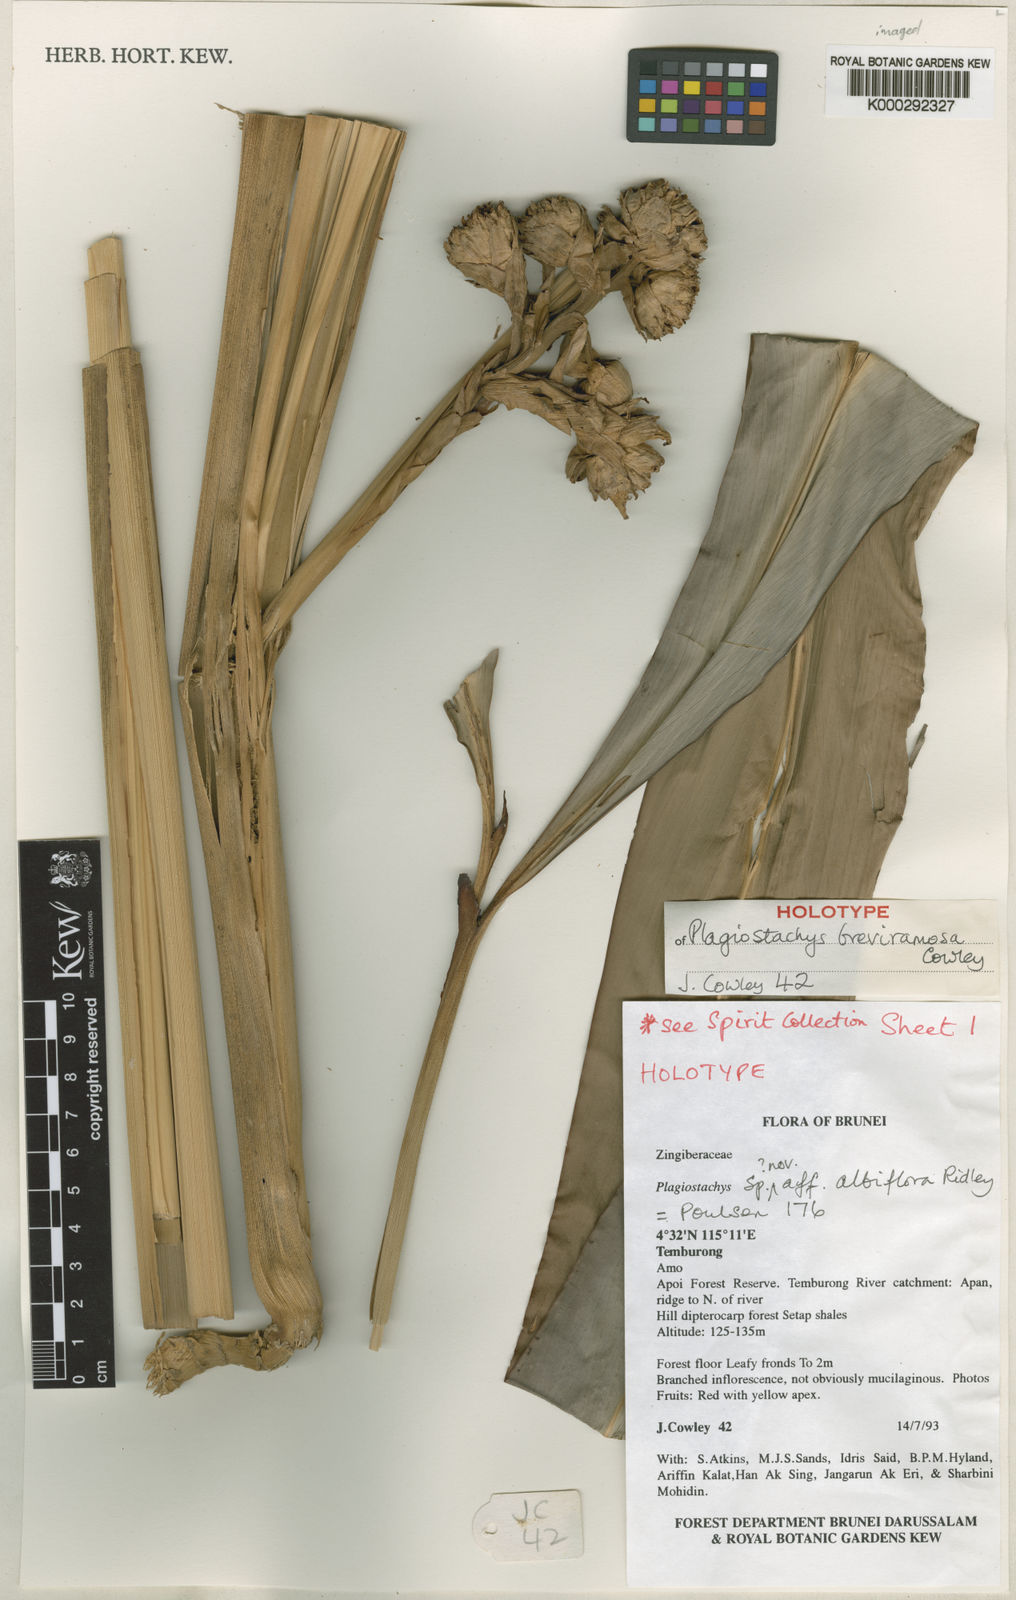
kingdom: Plantae
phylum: Tracheophyta
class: Liliopsida
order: Zingiberales
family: Zingiberaceae
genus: Plagiostachys
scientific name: Plagiostachys breviramosa
